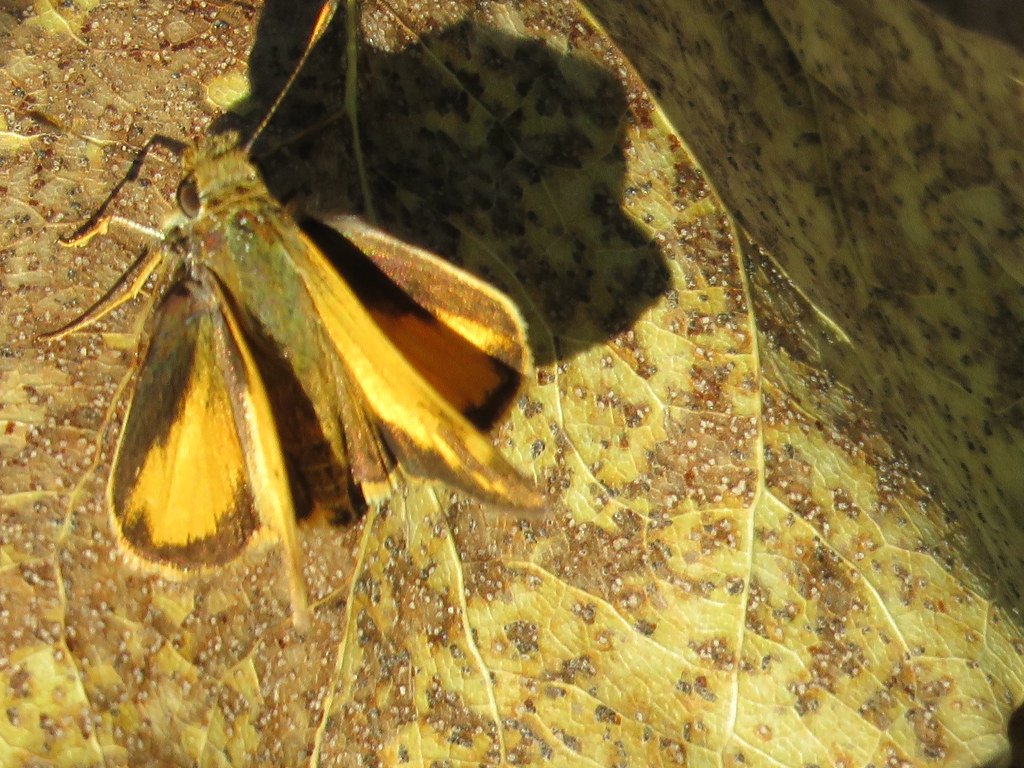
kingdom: Animalia
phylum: Arthropoda
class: Insecta
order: Lepidoptera
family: Hesperiidae
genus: Lon
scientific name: Lon zabulon
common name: Zabulon Skipper
